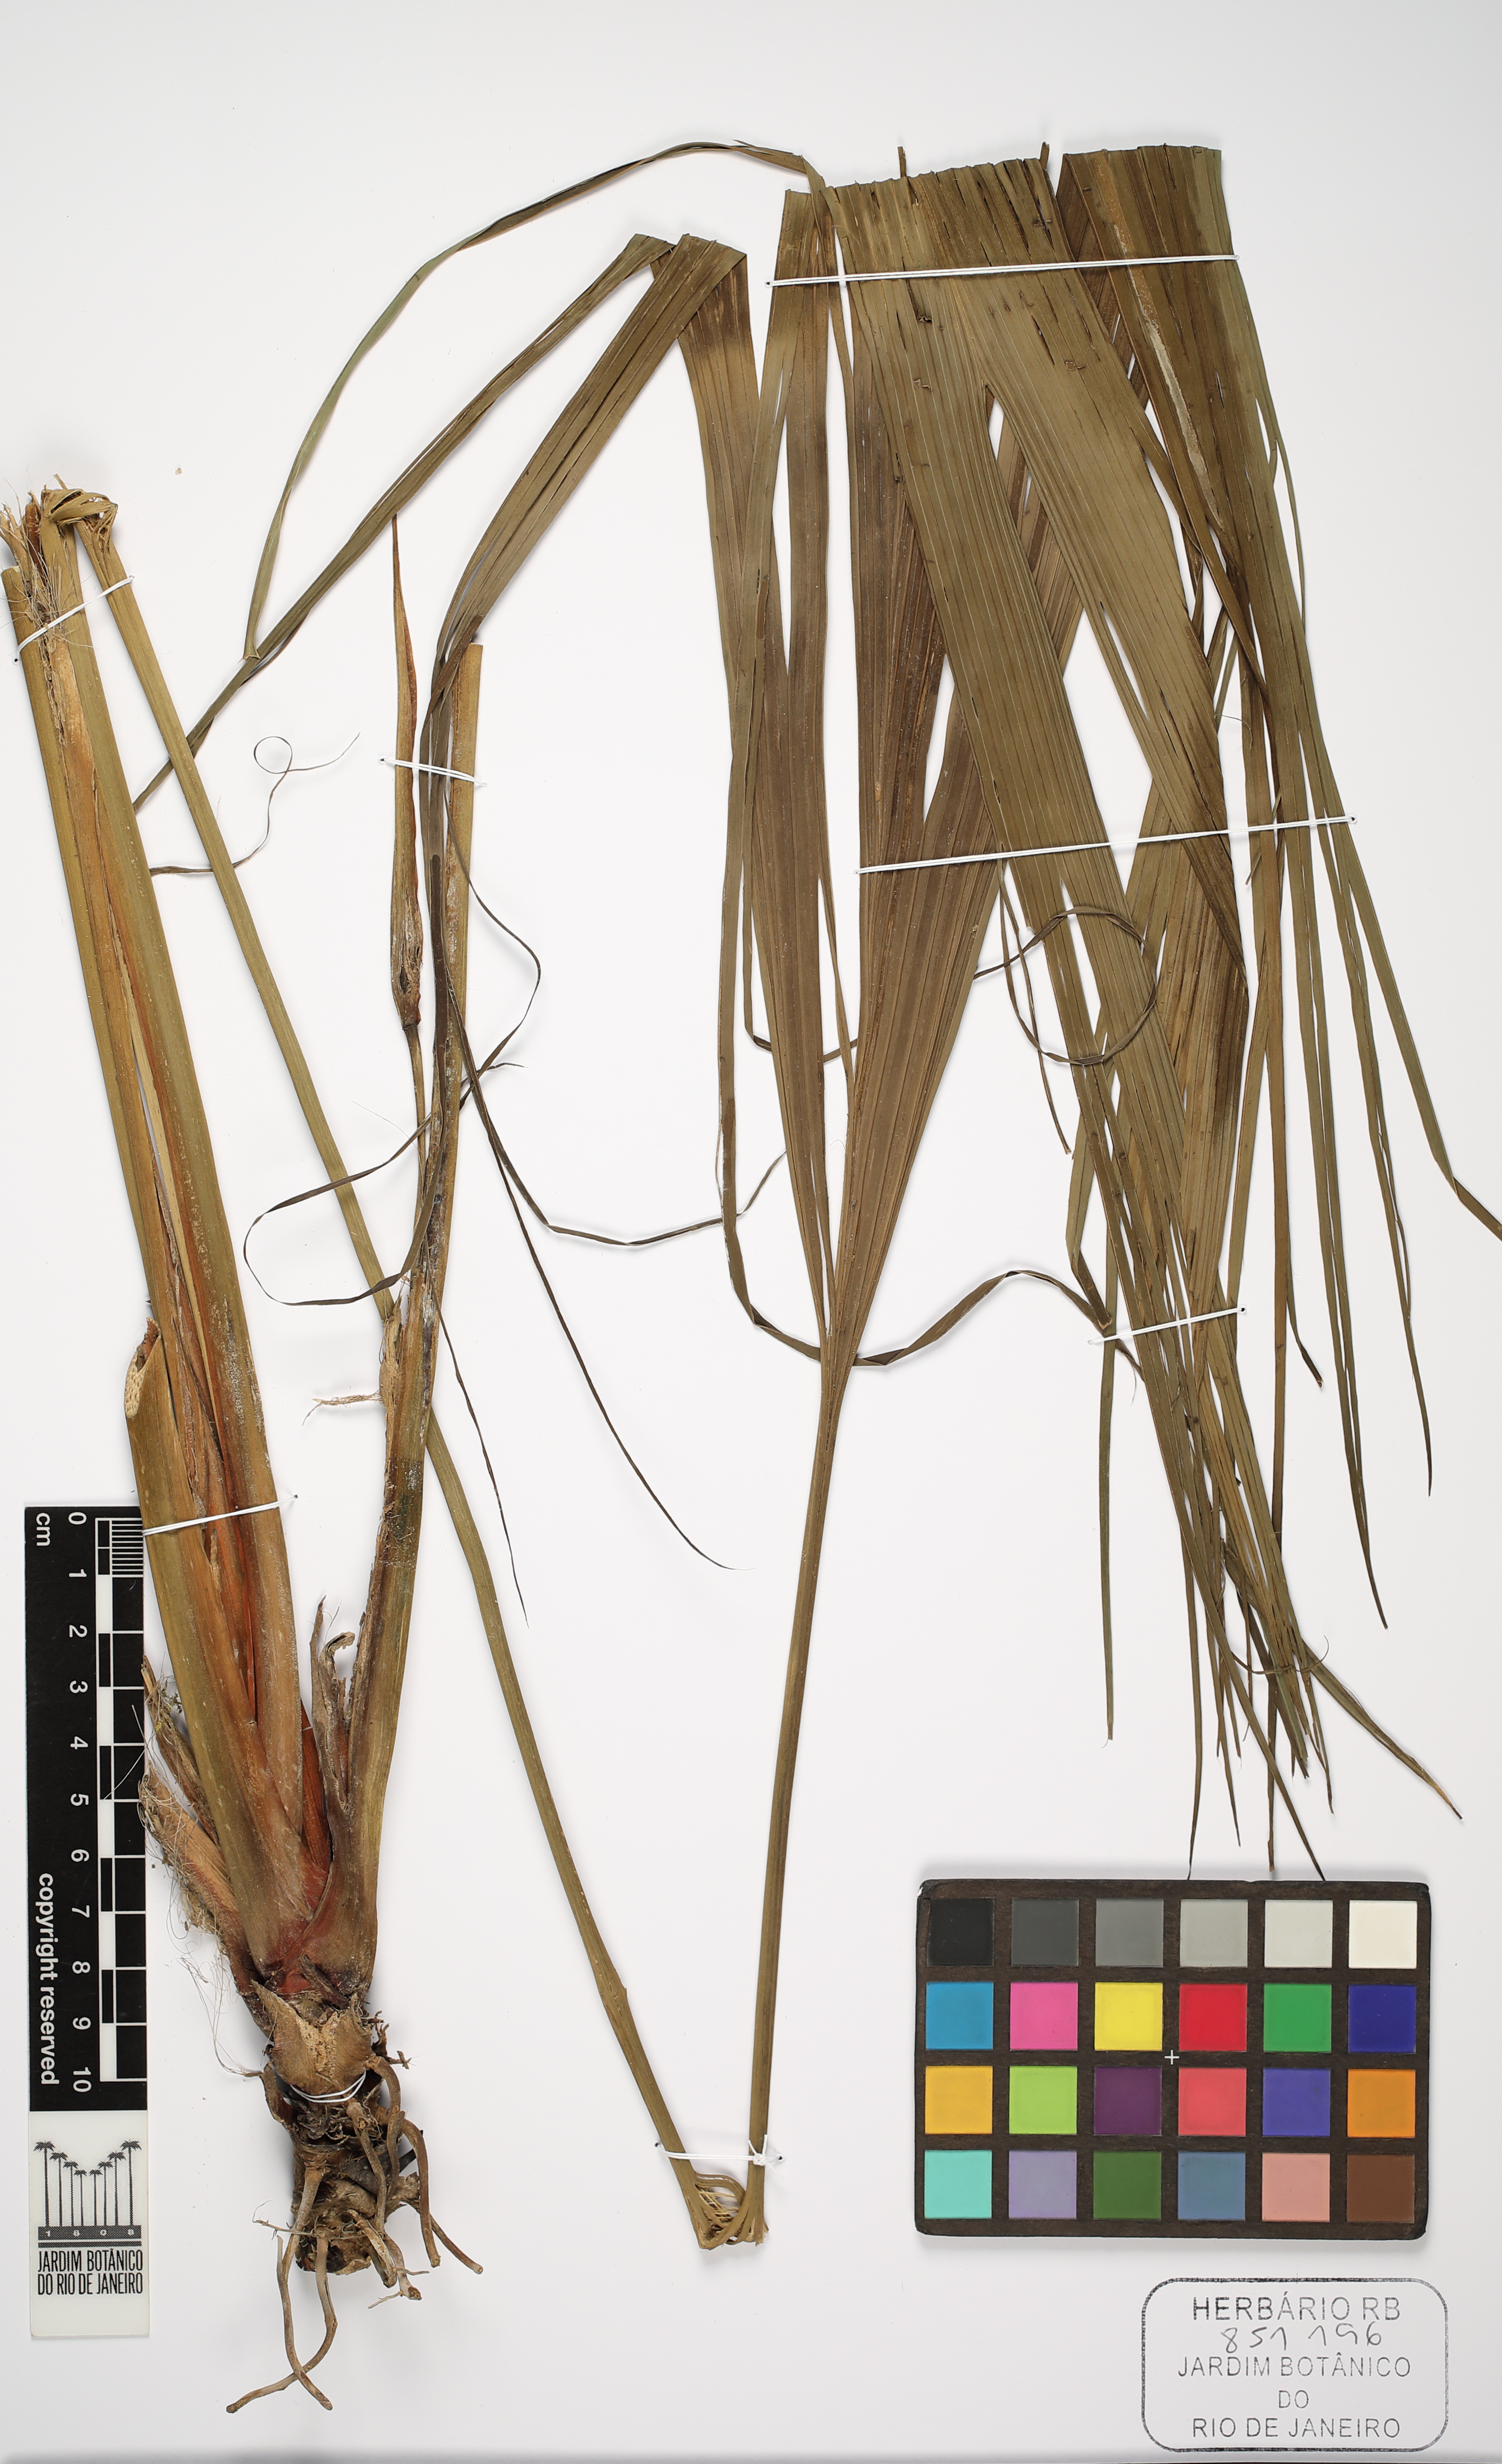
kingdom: Plantae
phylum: Tracheophyta
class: Liliopsida
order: Pandanales
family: Cyclanthaceae
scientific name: Cyclanthaceae
